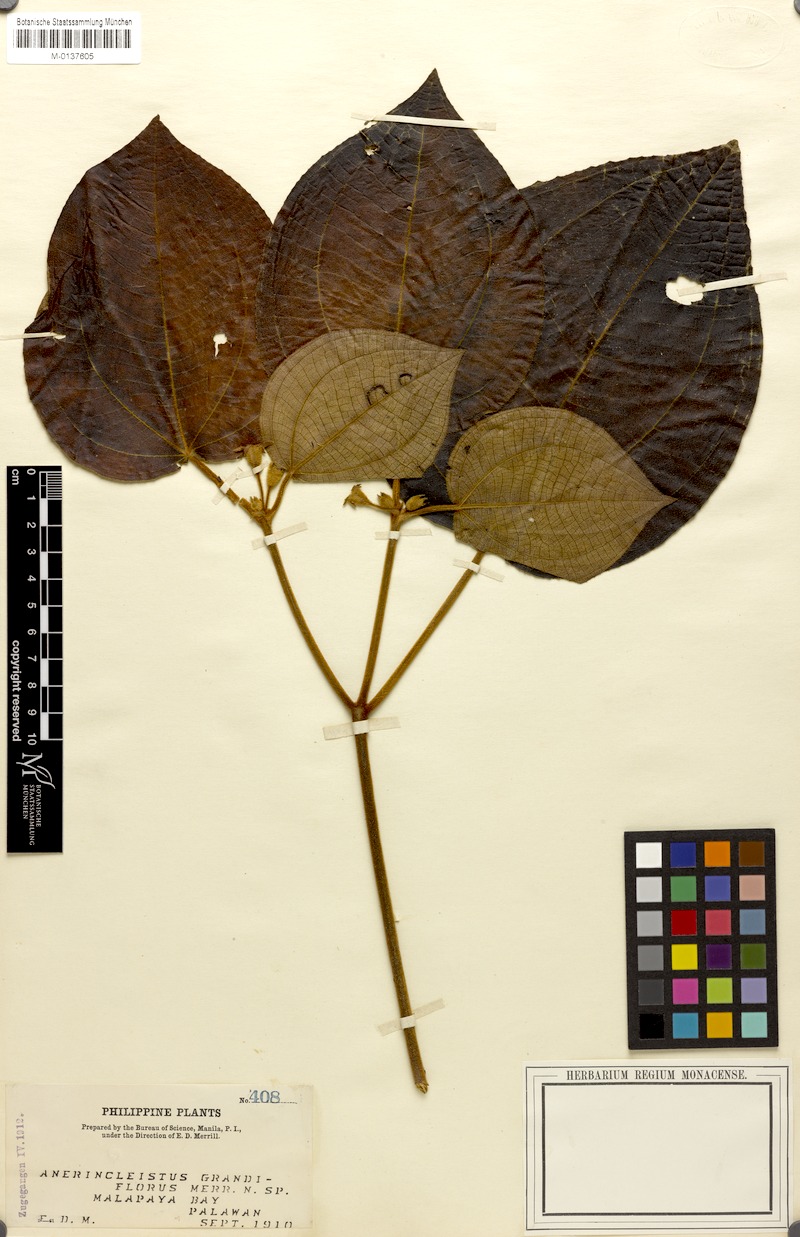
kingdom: Plantae
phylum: Tracheophyta
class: Magnoliopsida
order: Myrtales
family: Melastomataceae
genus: Anerincleistus
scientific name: Anerincleistus grandiflorus
